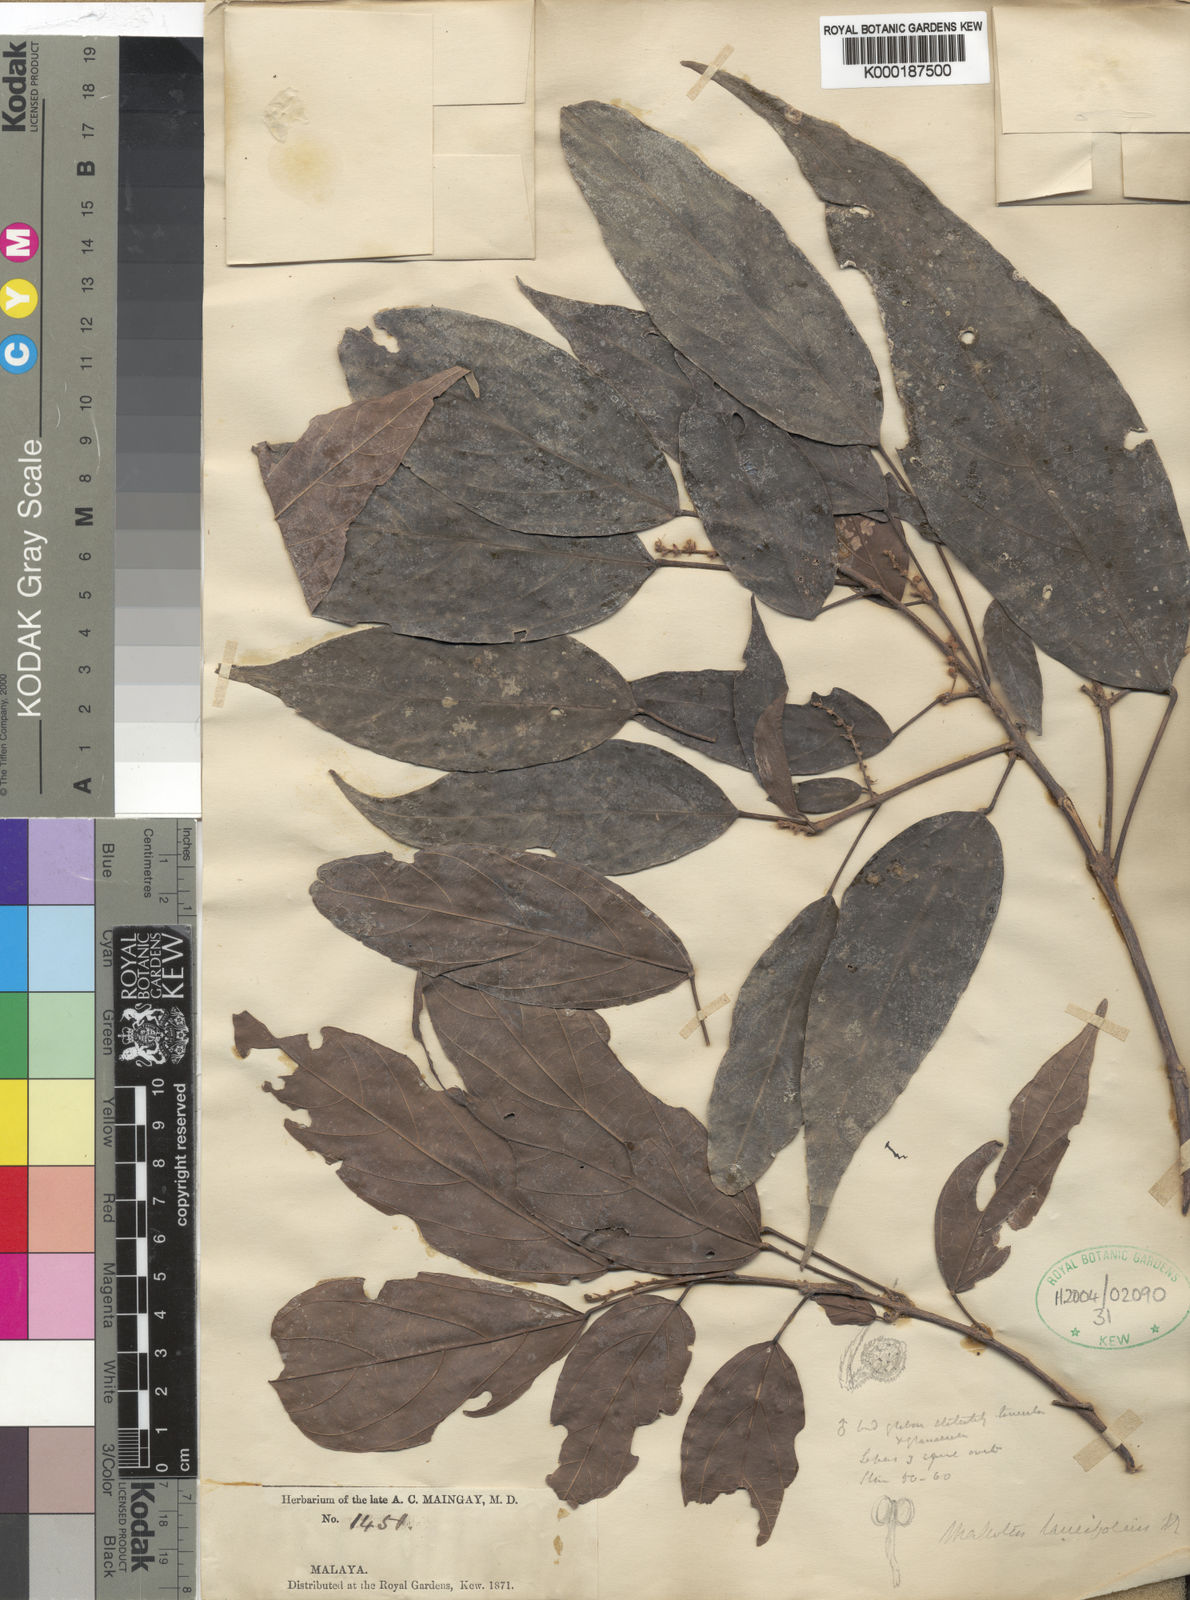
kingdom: Plantae
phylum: Tracheophyta
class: Magnoliopsida
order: Malpighiales
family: Euphorbiaceae
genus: Mallotus
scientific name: Mallotus lancifolius
